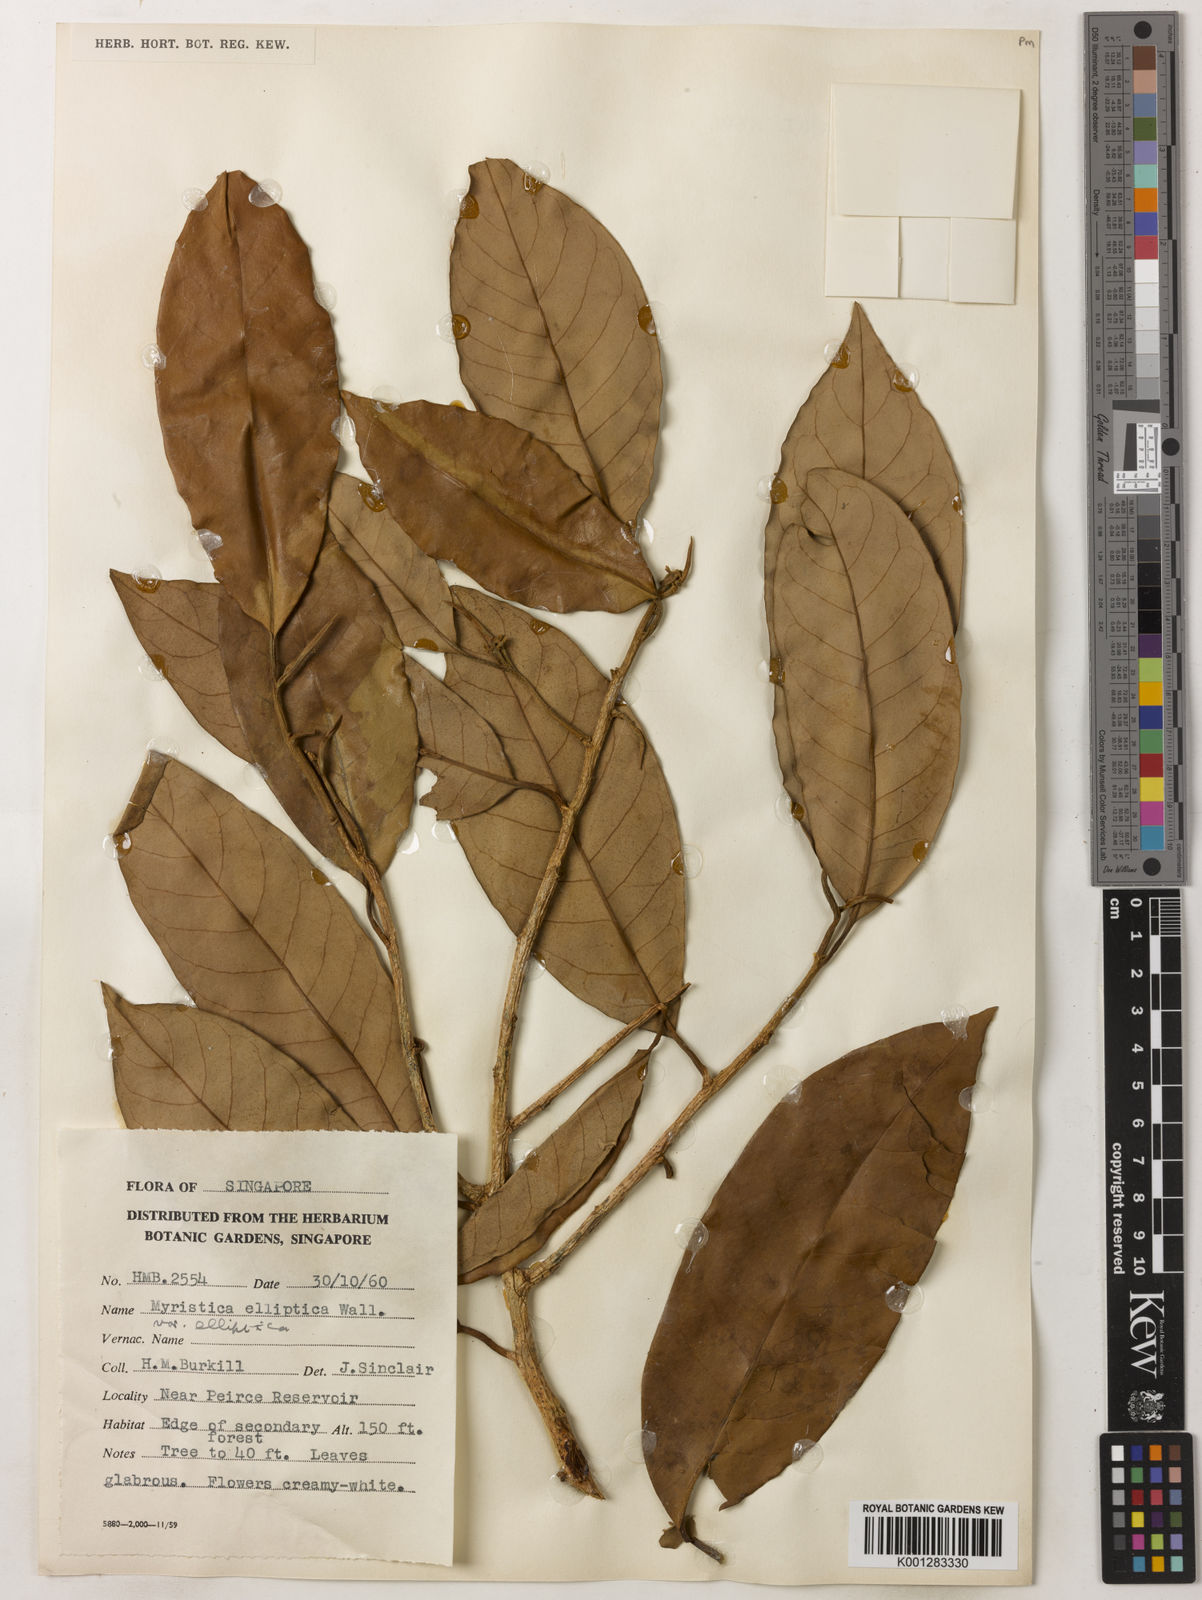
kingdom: Plantae
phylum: Tracheophyta
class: Magnoliopsida
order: Magnoliales
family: Myristicaceae
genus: Myristica
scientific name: Myristica elliptica
